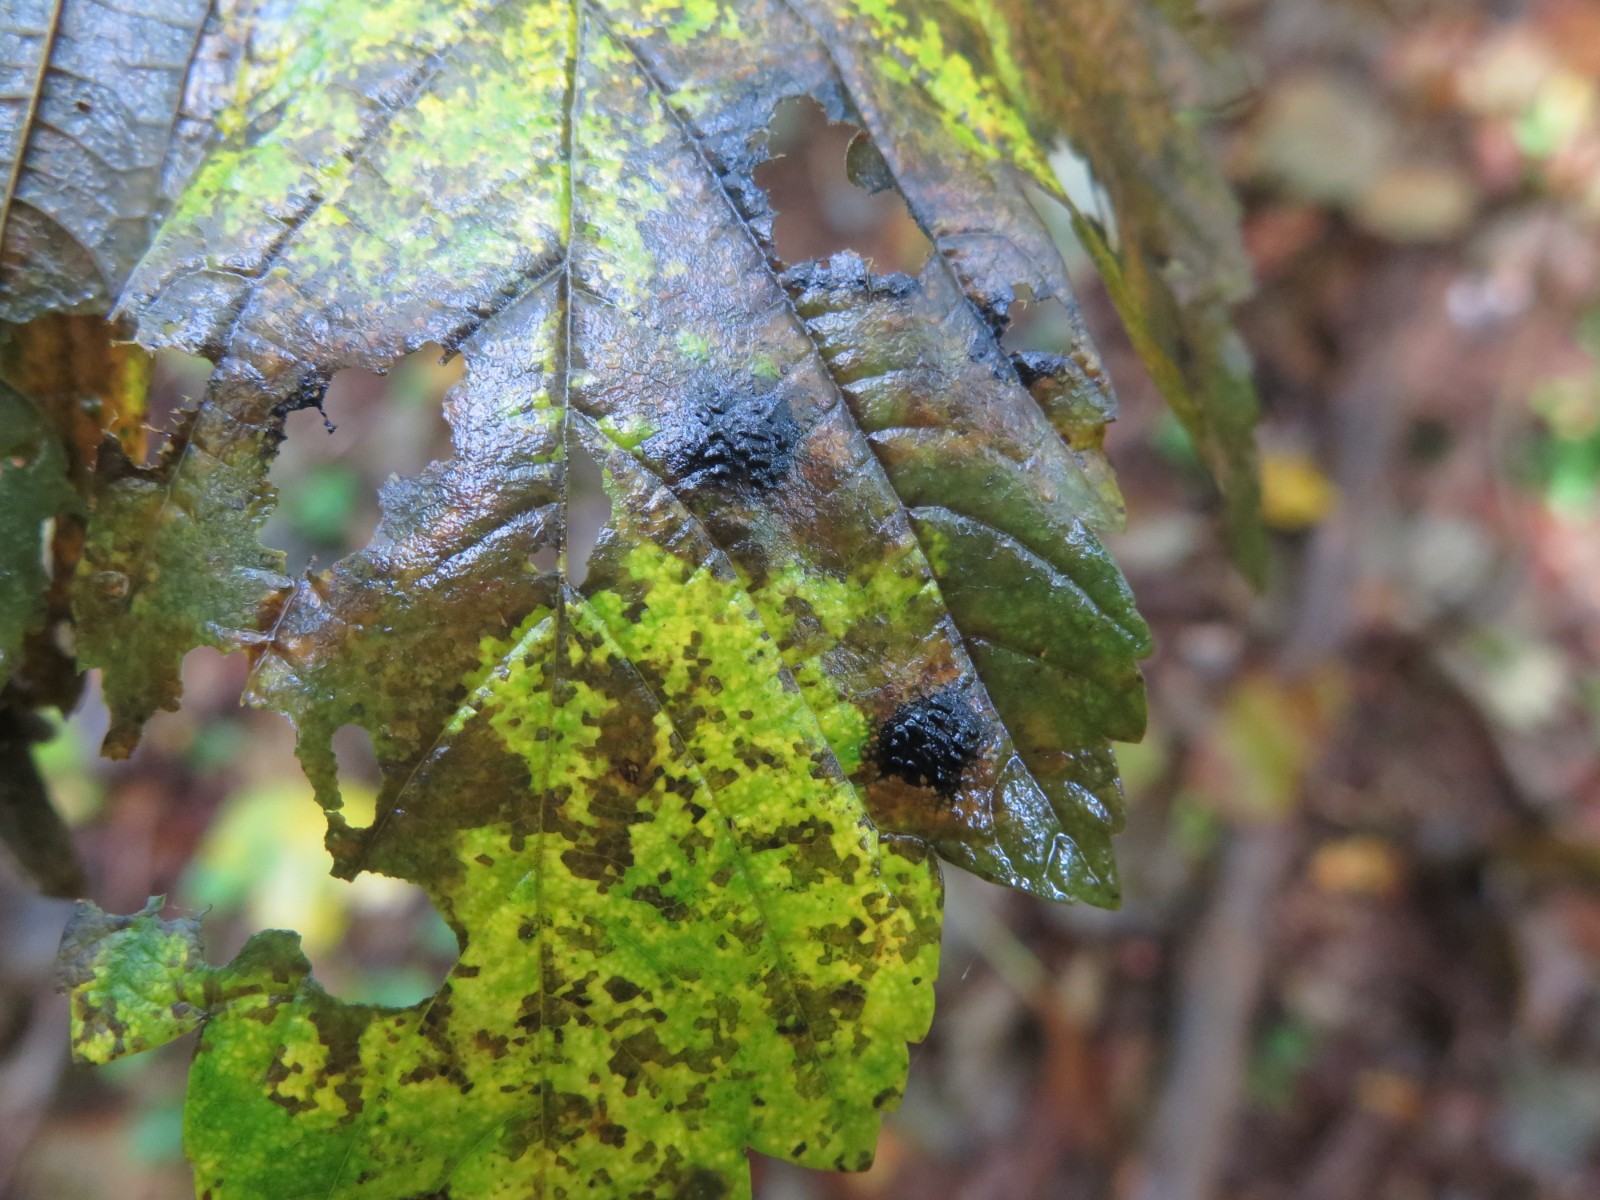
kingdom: Fungi
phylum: Ascomycota
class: Leotiomycetes
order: Rhytismatales
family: Rhytismataceae
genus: Rhytisma
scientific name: Rhytisma acerinum
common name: ahorn-rynkeplet
